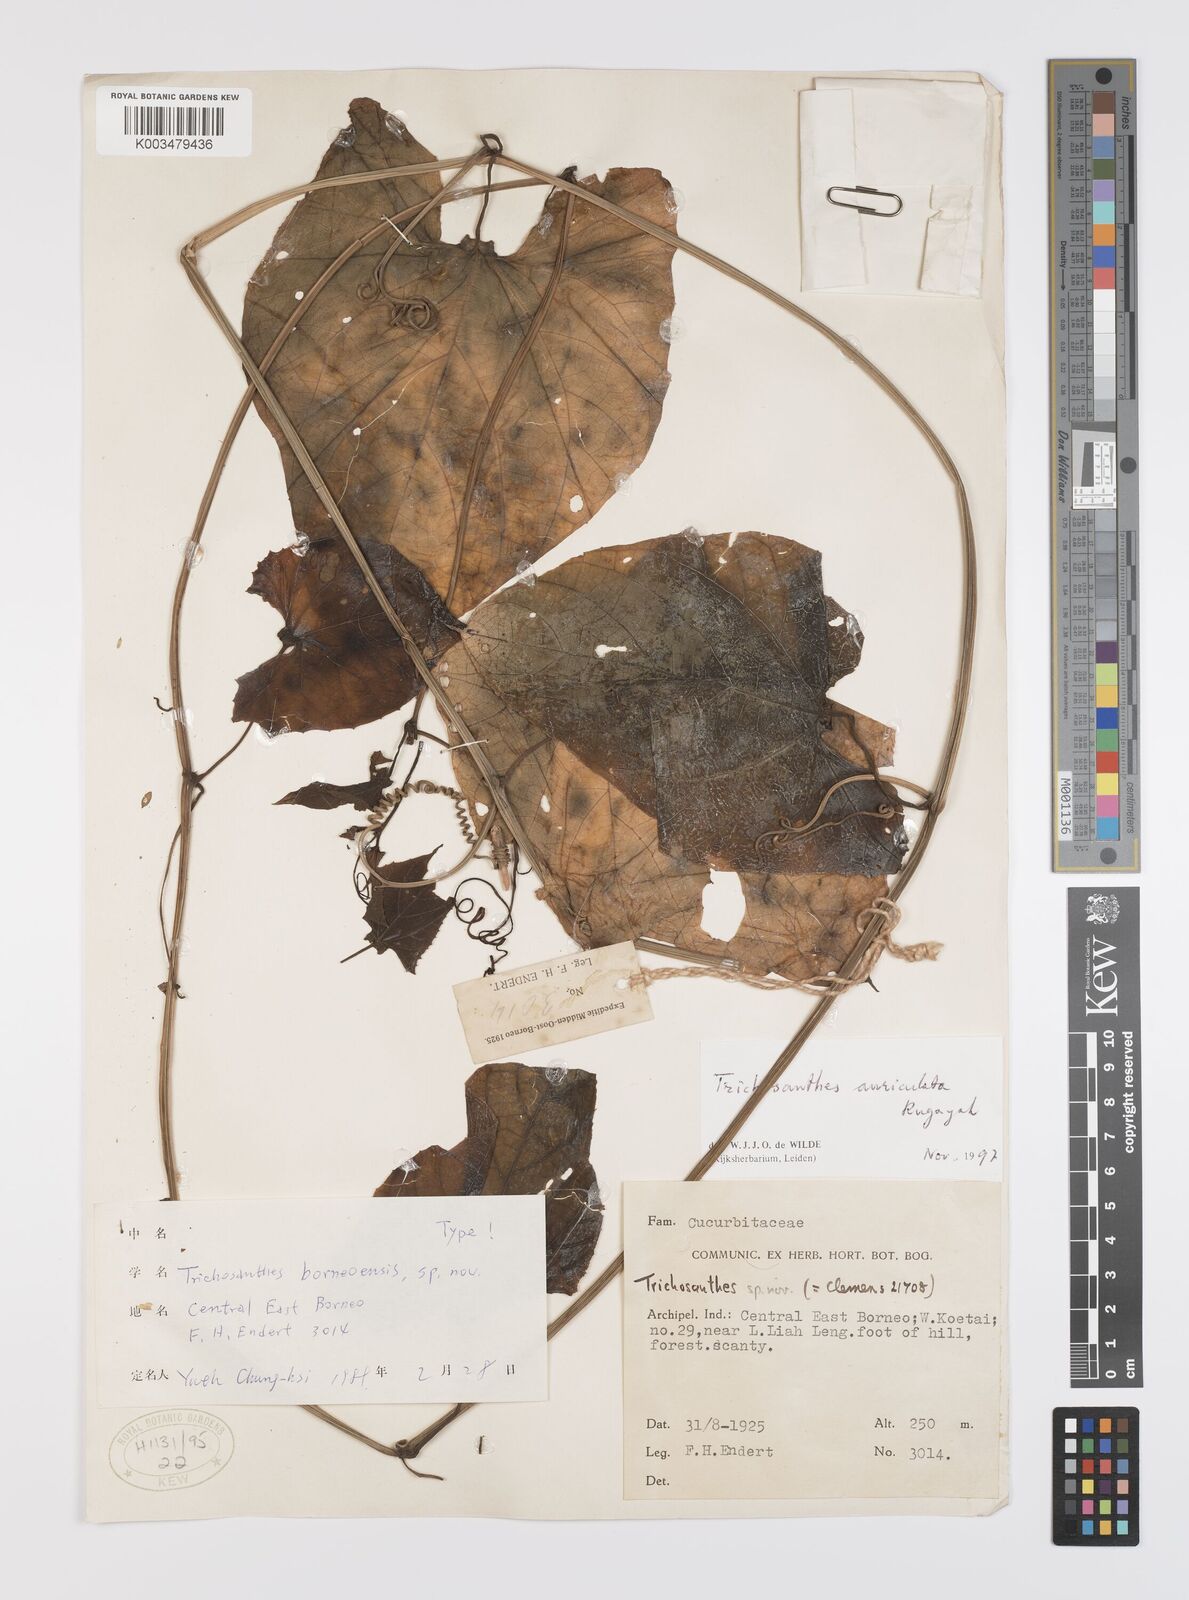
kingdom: Plantae
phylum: Tracheophyta
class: Magnoliopsida
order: Cucurbitales
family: Cucurbitaceae
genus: Trichosanthes
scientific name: Trichosanthes auriculata
